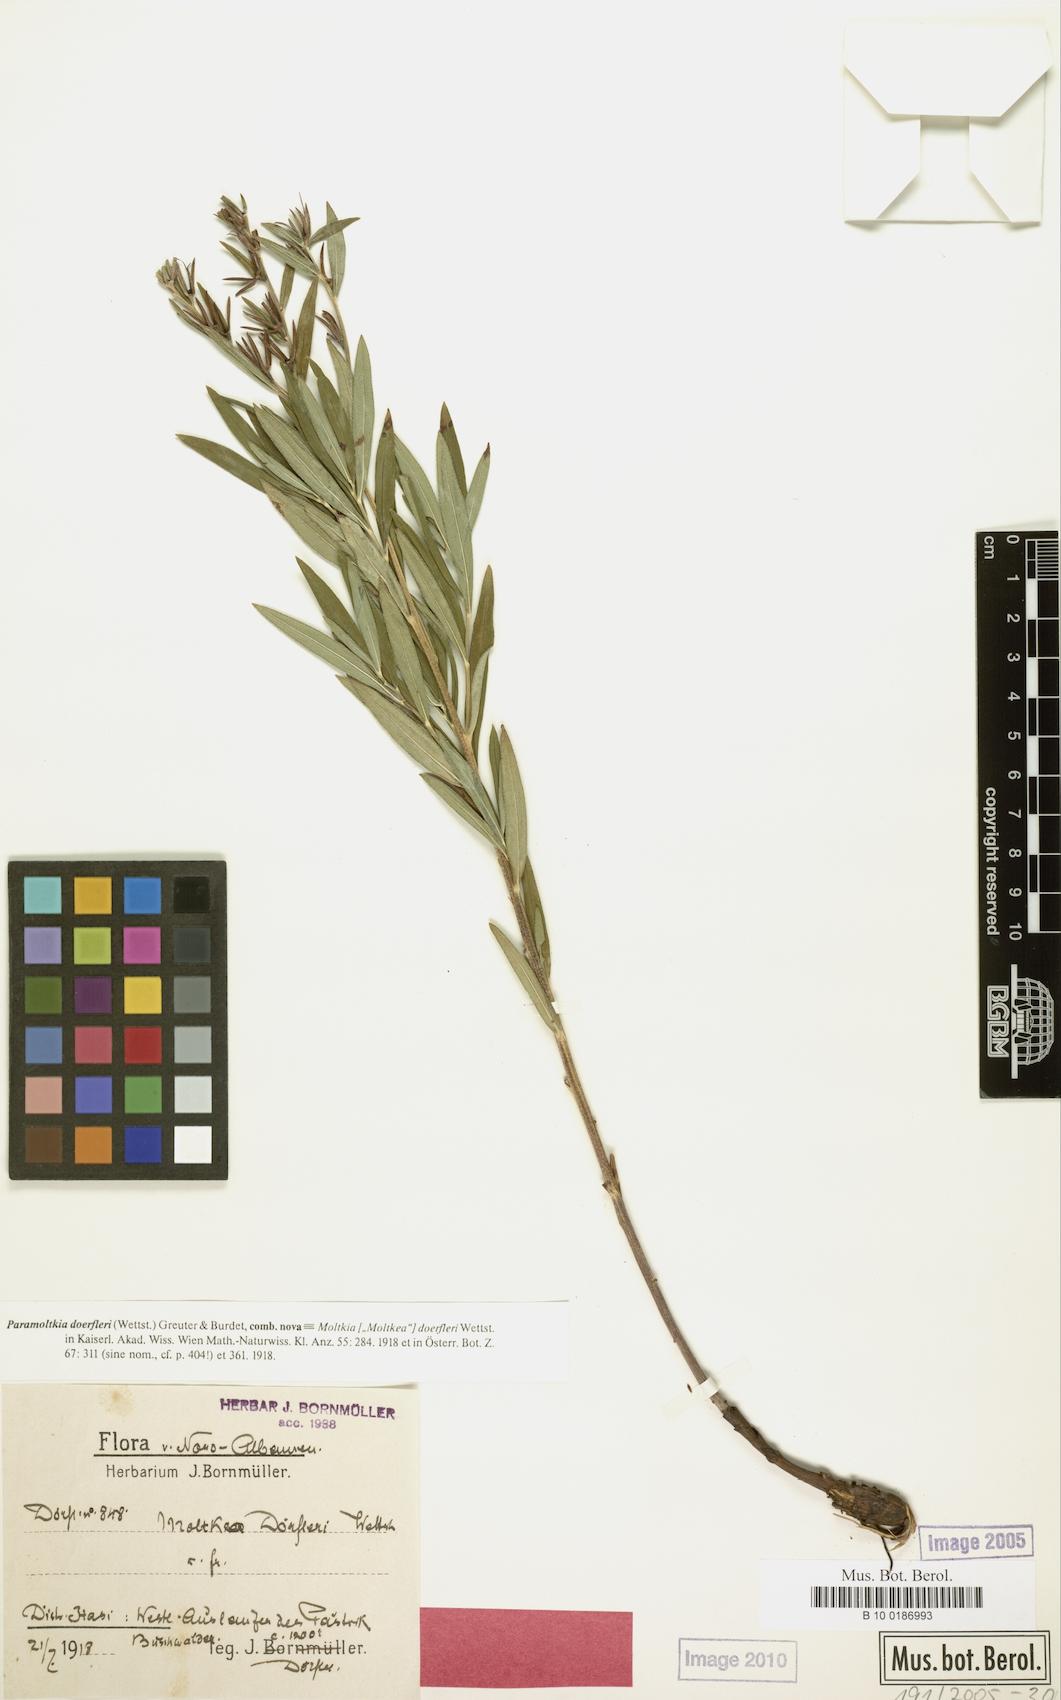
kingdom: Plantae
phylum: Tracheophyta
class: Magnoliopsida
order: Boraginales
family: Boraginaceae
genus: Paramoltkia
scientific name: Paramoltkia doerfleri
